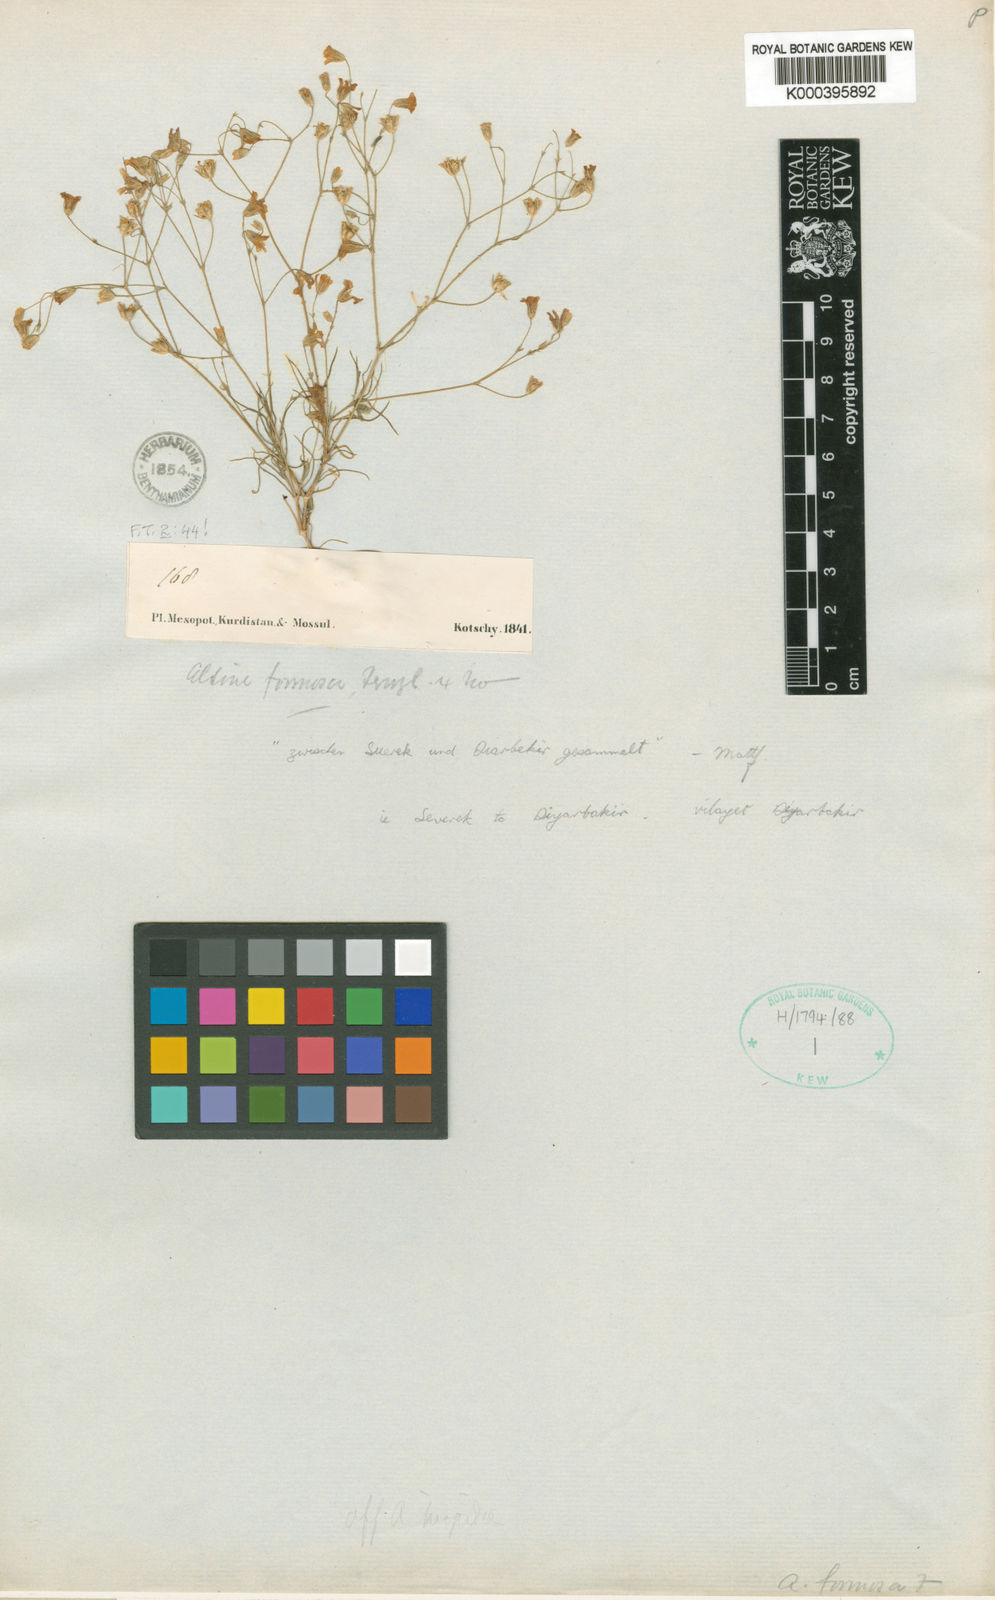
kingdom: Plantae
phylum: Tracheophyta
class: Magnoliopsida
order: Caryophyllales
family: Caryophyllaceae
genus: Eremogone
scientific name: Eremogone minuartioides
